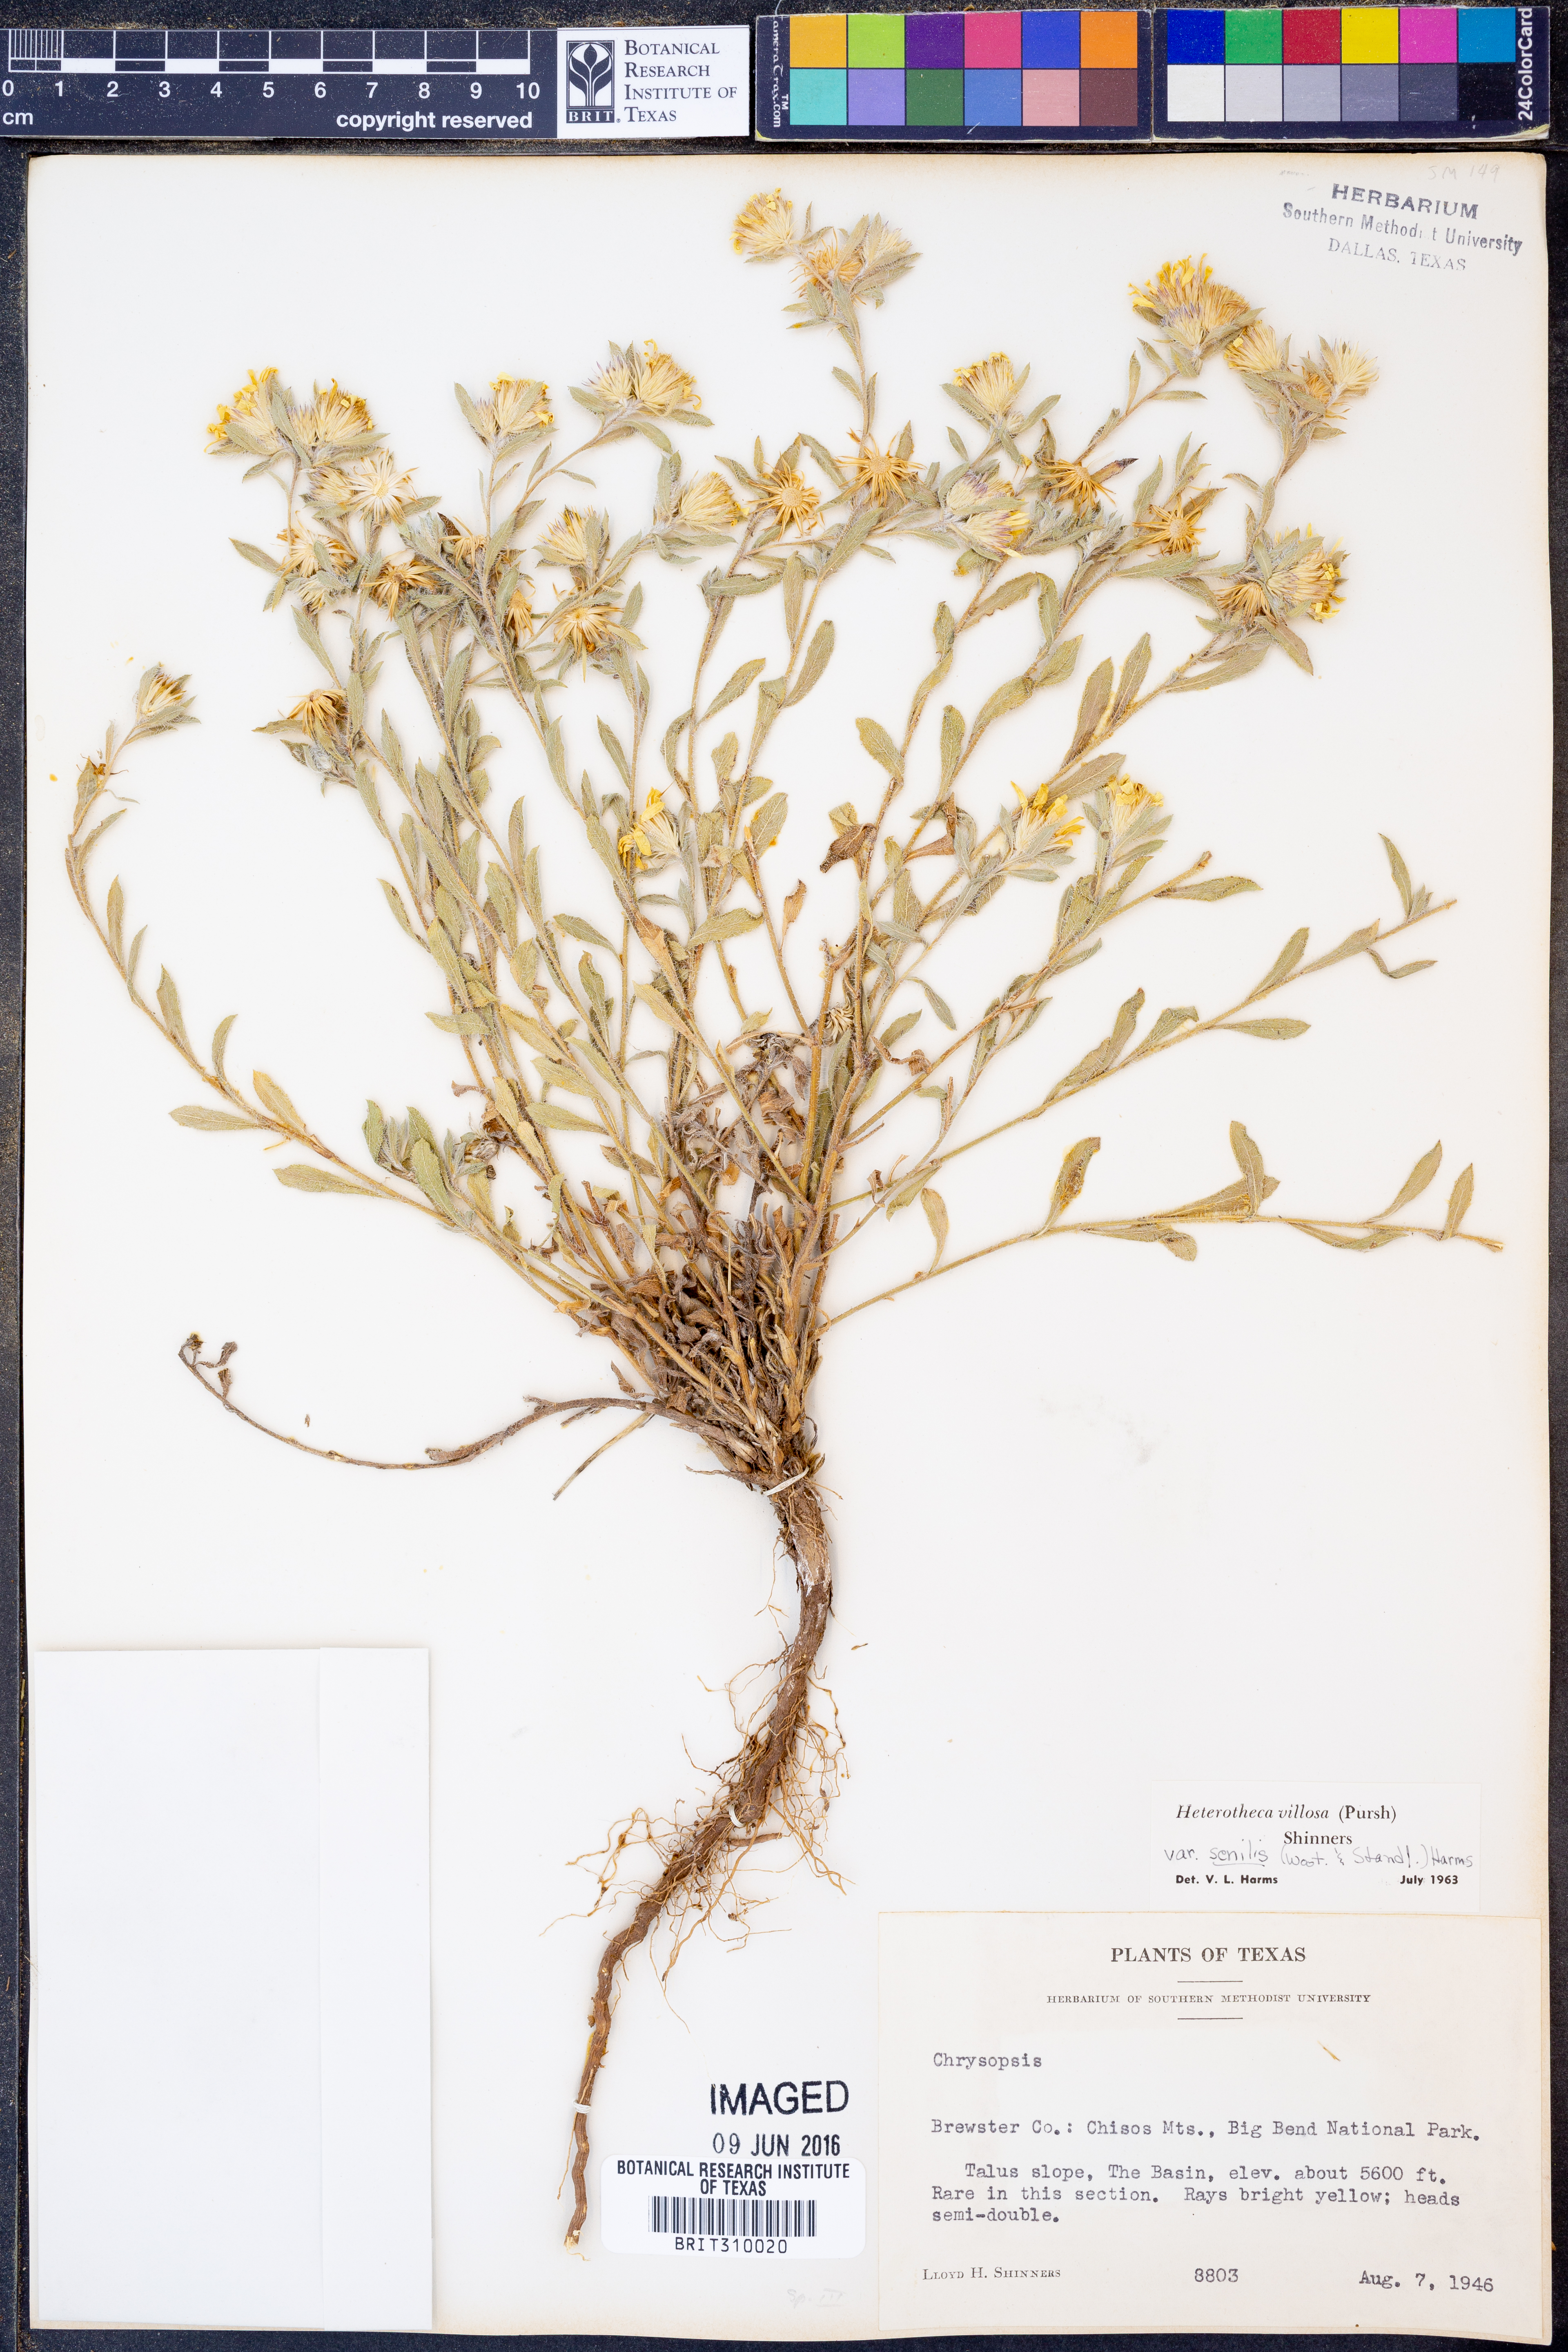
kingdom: Plantae
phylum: Tracheophyta
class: Magnoliopsida
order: Asterales
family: Asteraceae
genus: Heterotheca
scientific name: Heterotheca villosa
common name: Hairy false goldenaster
